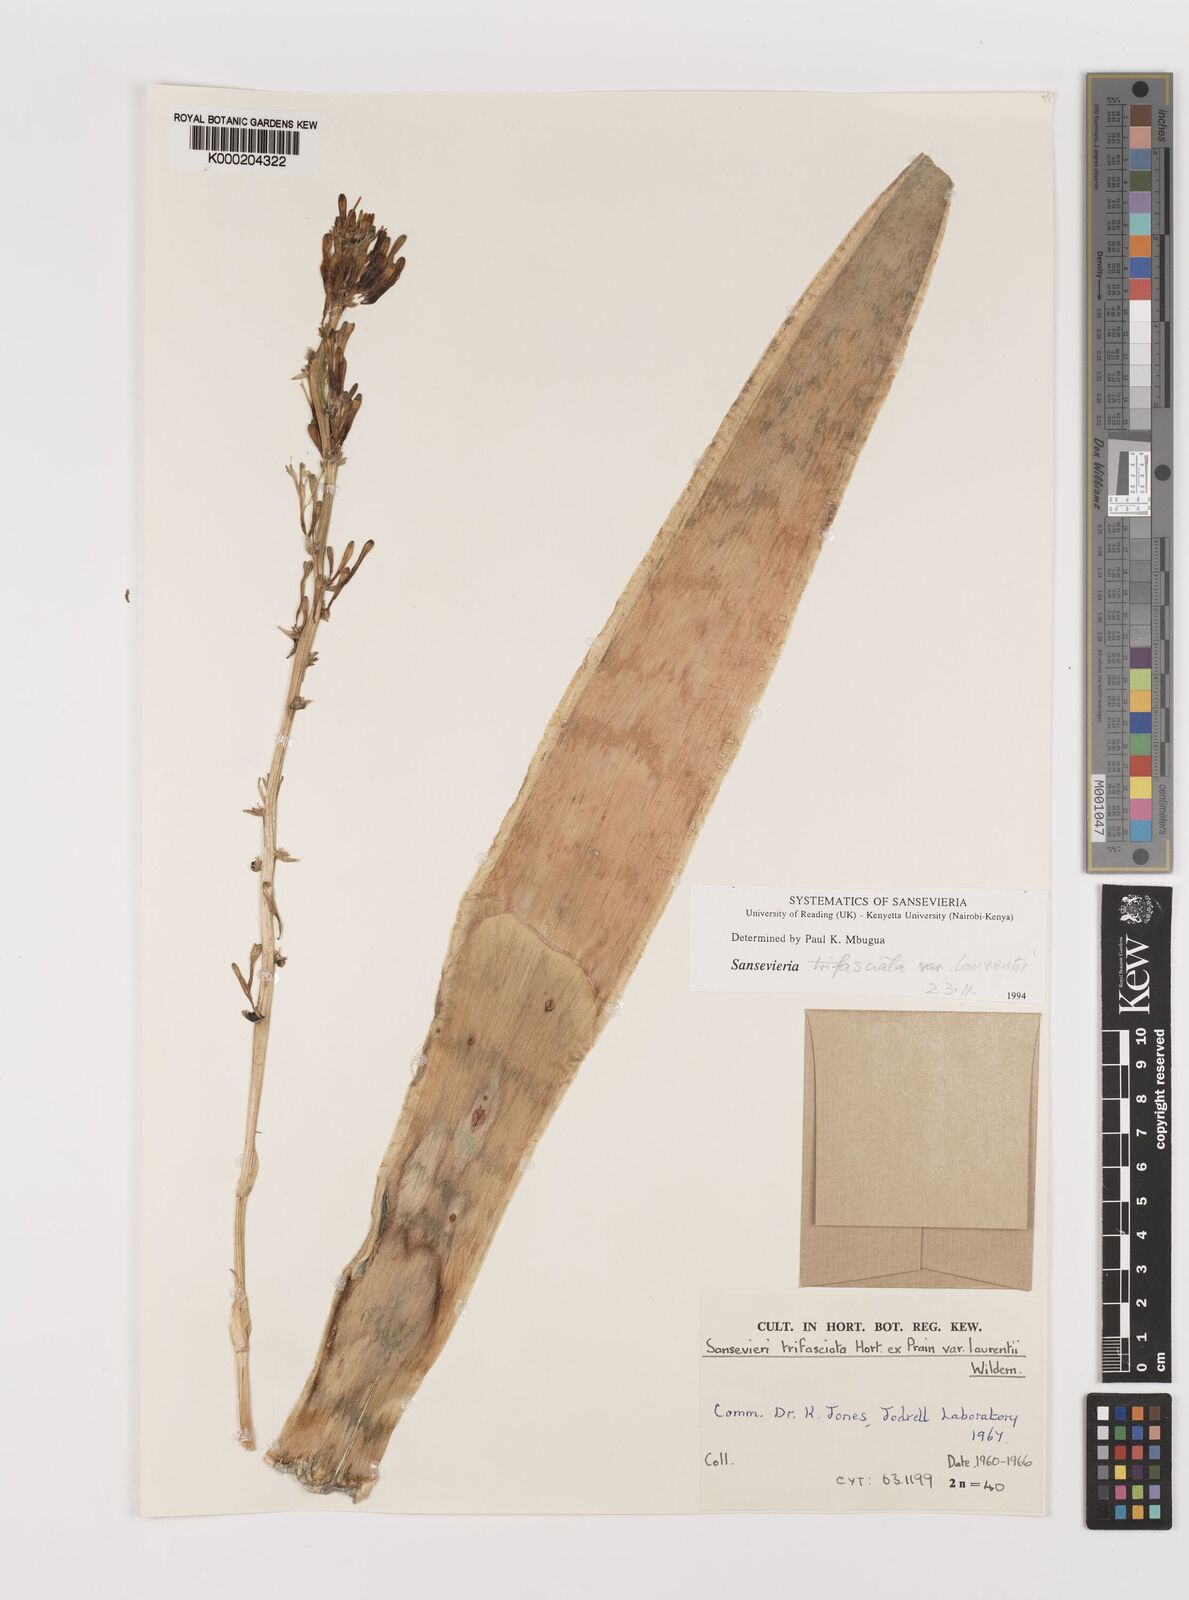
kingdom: Plantae
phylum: Tracheophyta
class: Liliopsida
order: Asparagales
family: Asparagaceae
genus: Dracaena
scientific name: Dracaena trifasciata
